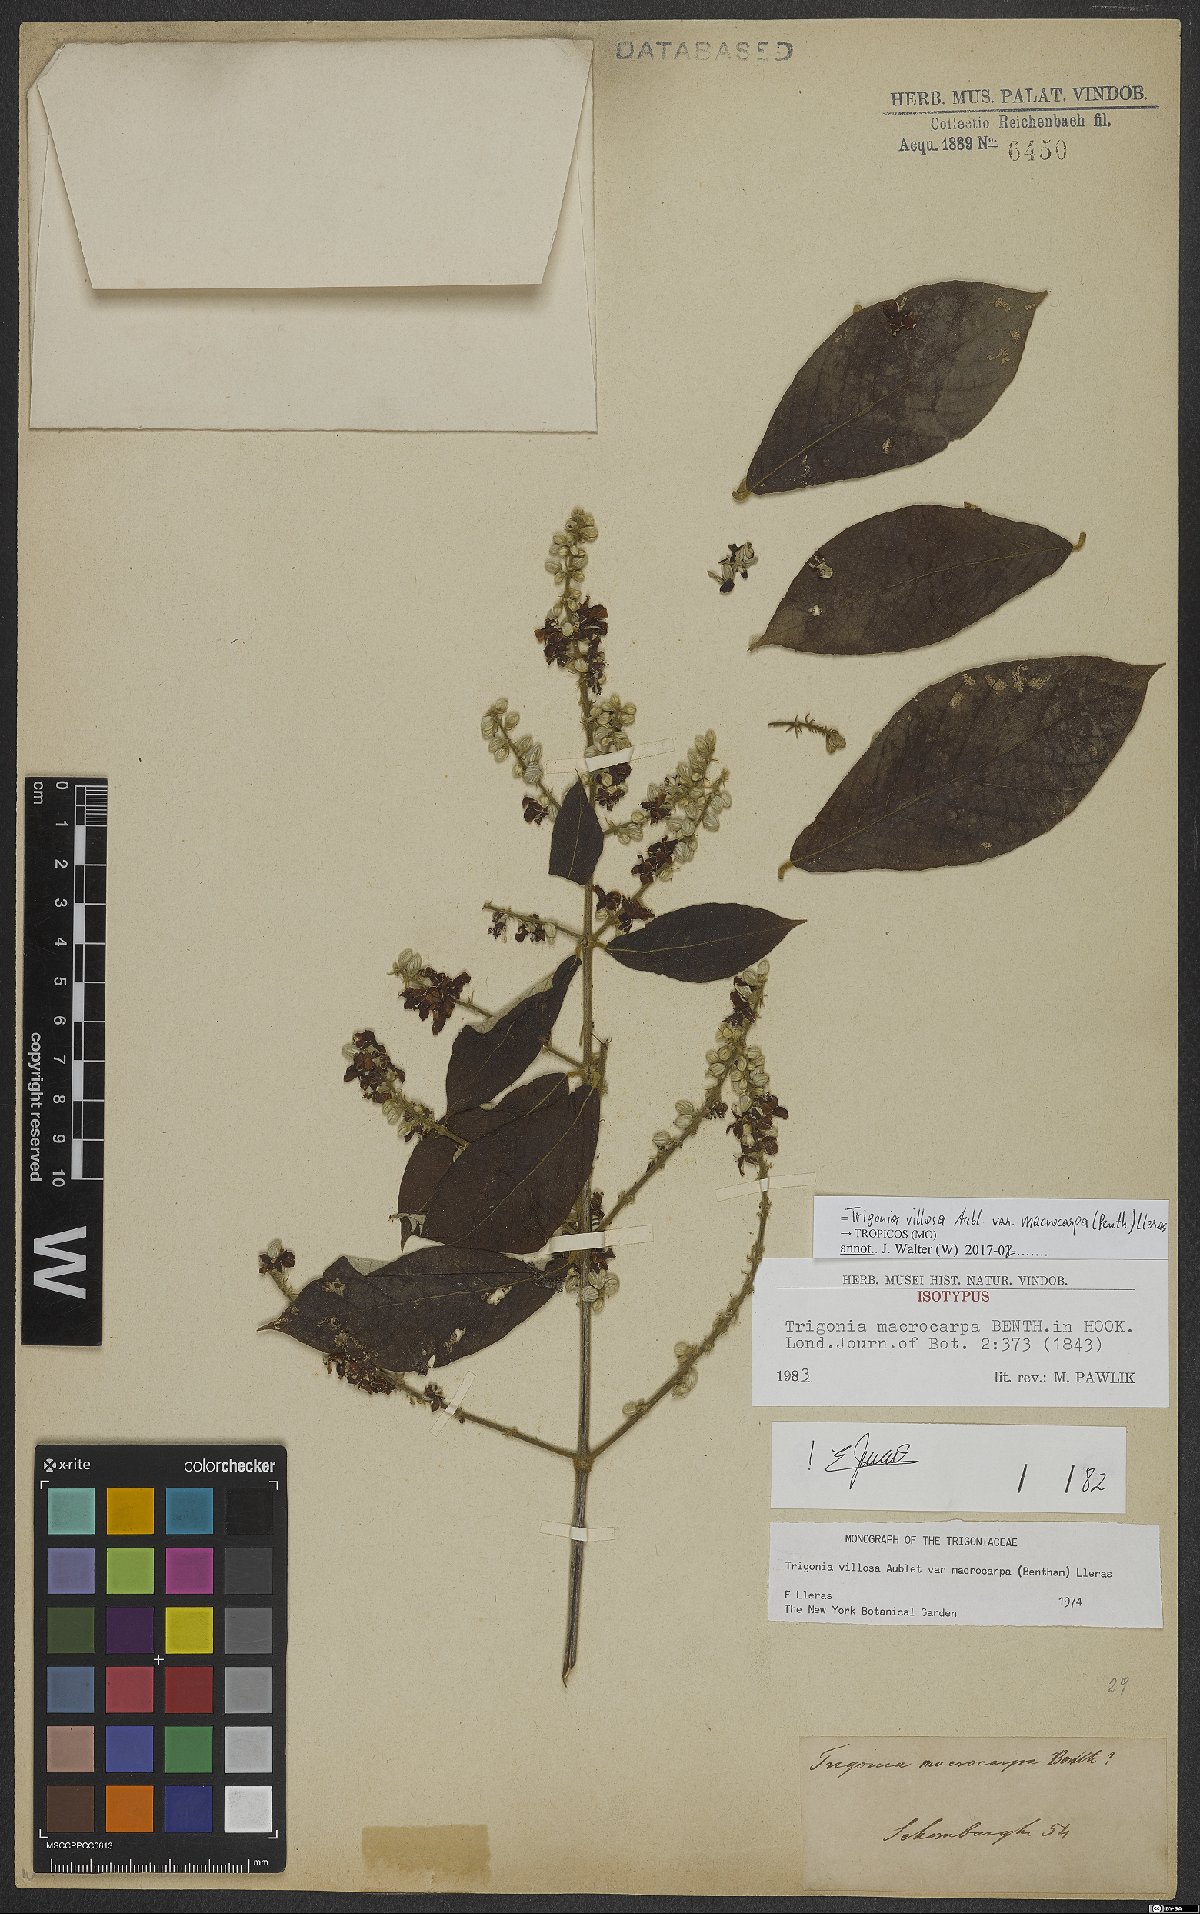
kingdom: Plantae
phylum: Tracheophyta
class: Magnoliopsida
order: Malpighiales
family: Trigoniaceae
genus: Trigonia
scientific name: Trigonia villosa
